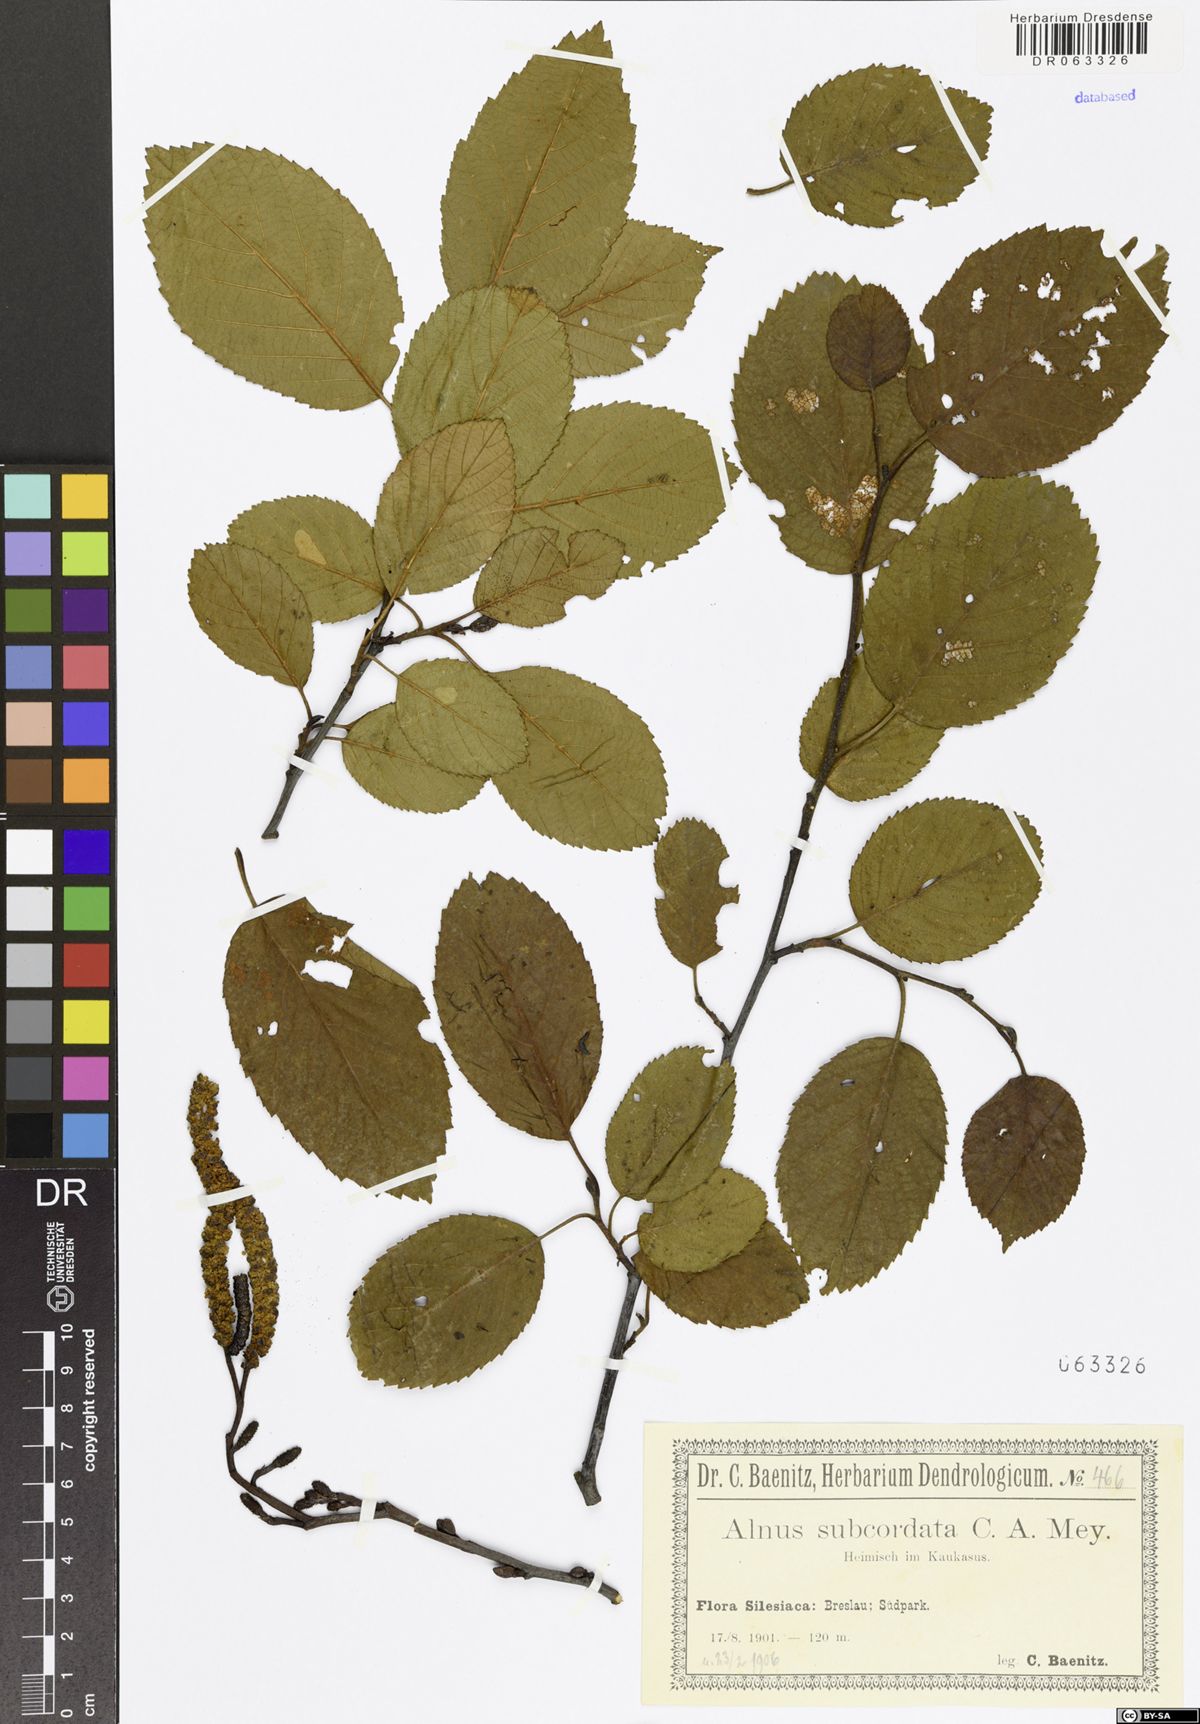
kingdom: Plantae
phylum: Tracheophyta
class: Magnoliopsida
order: Fagales
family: Betulaceae
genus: Alnus
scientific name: Alnus subcordata
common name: Caucasian alder
